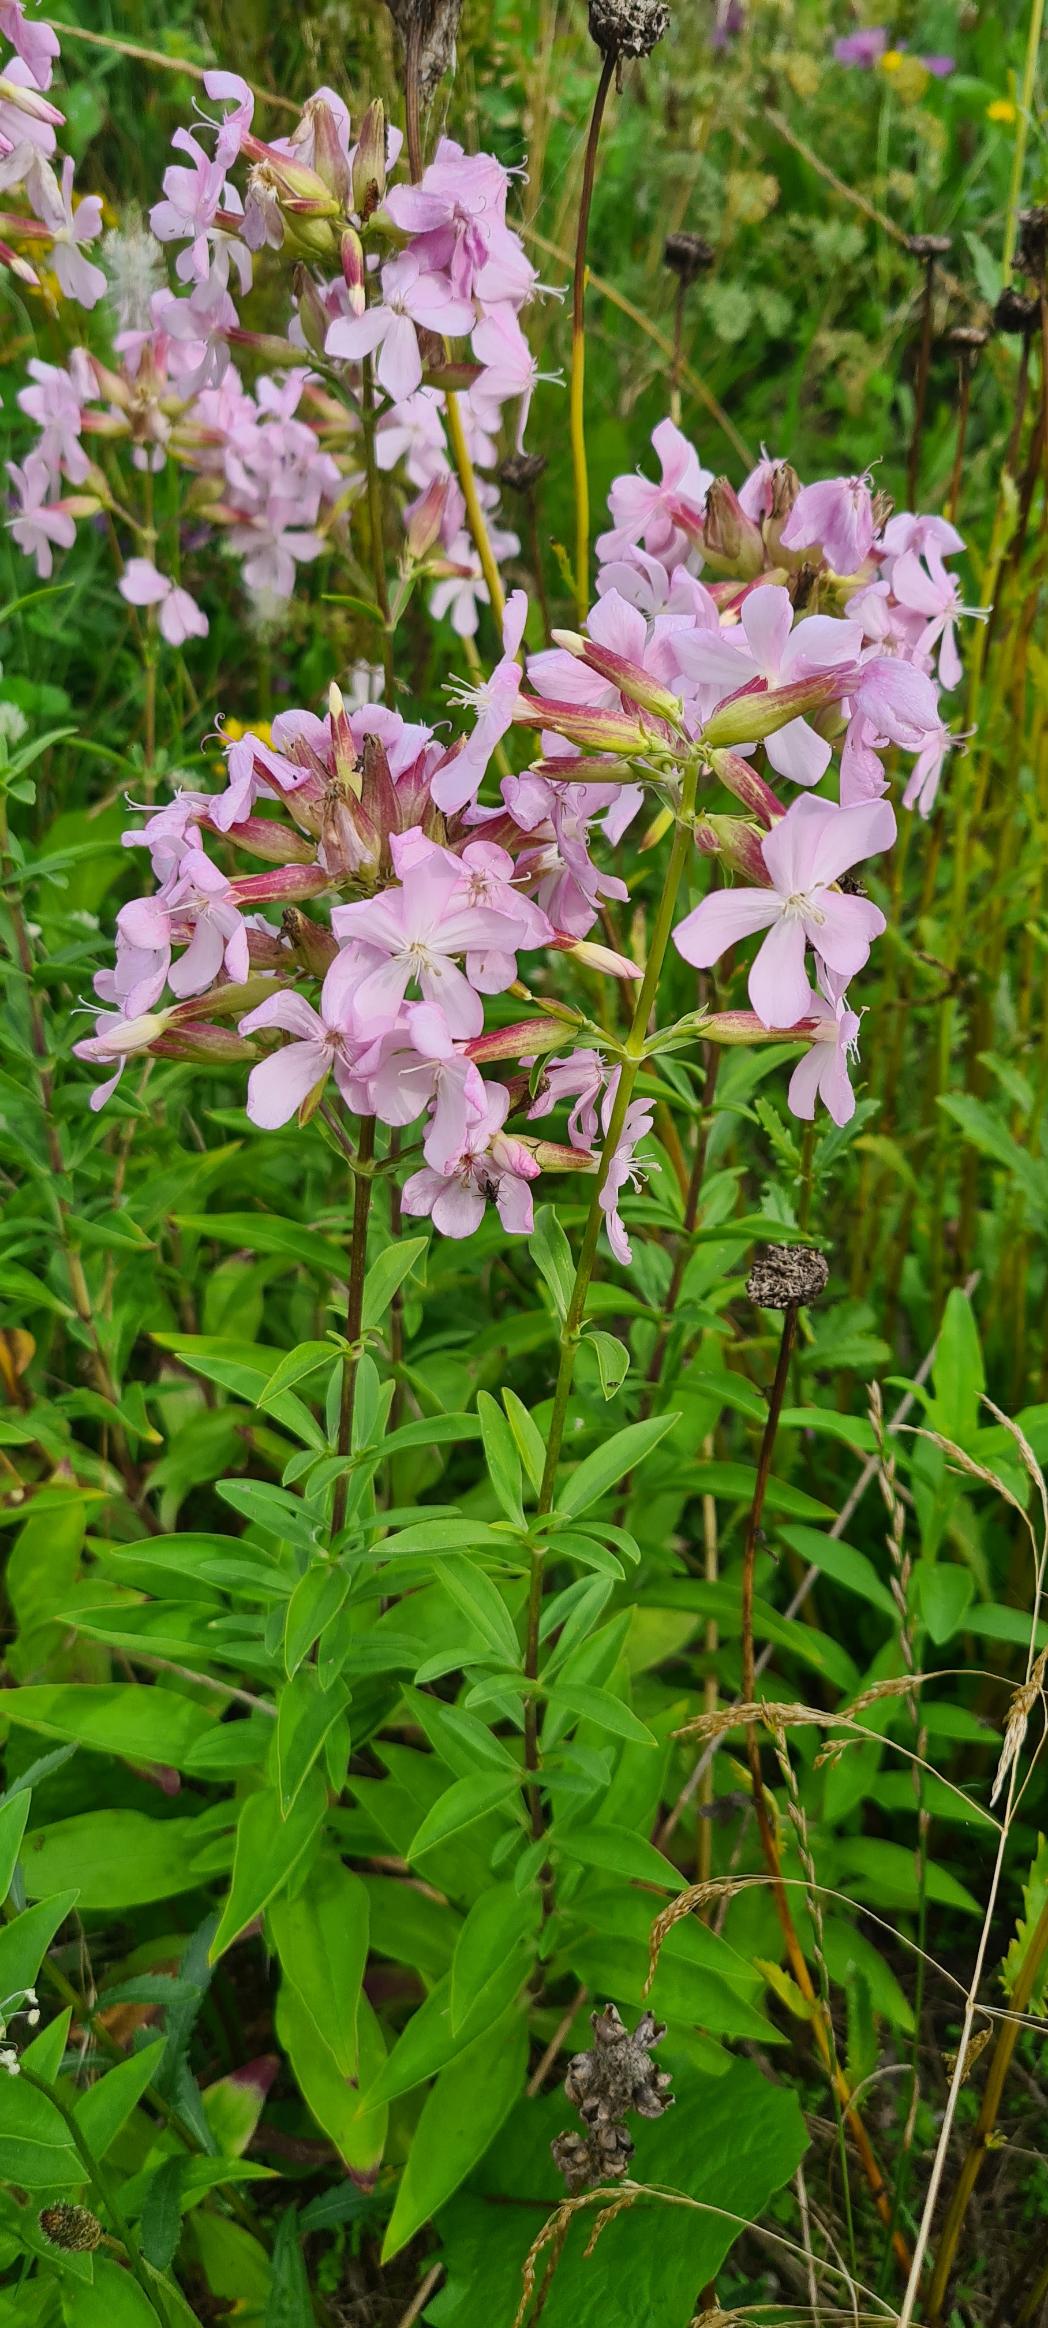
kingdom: Plantae
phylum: Tracheophyta
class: Magnoliopsida
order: Caryophyllales
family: Caryophyllaceae
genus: Saponaria
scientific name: Saponaria officinalis
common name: Sæbeurt
